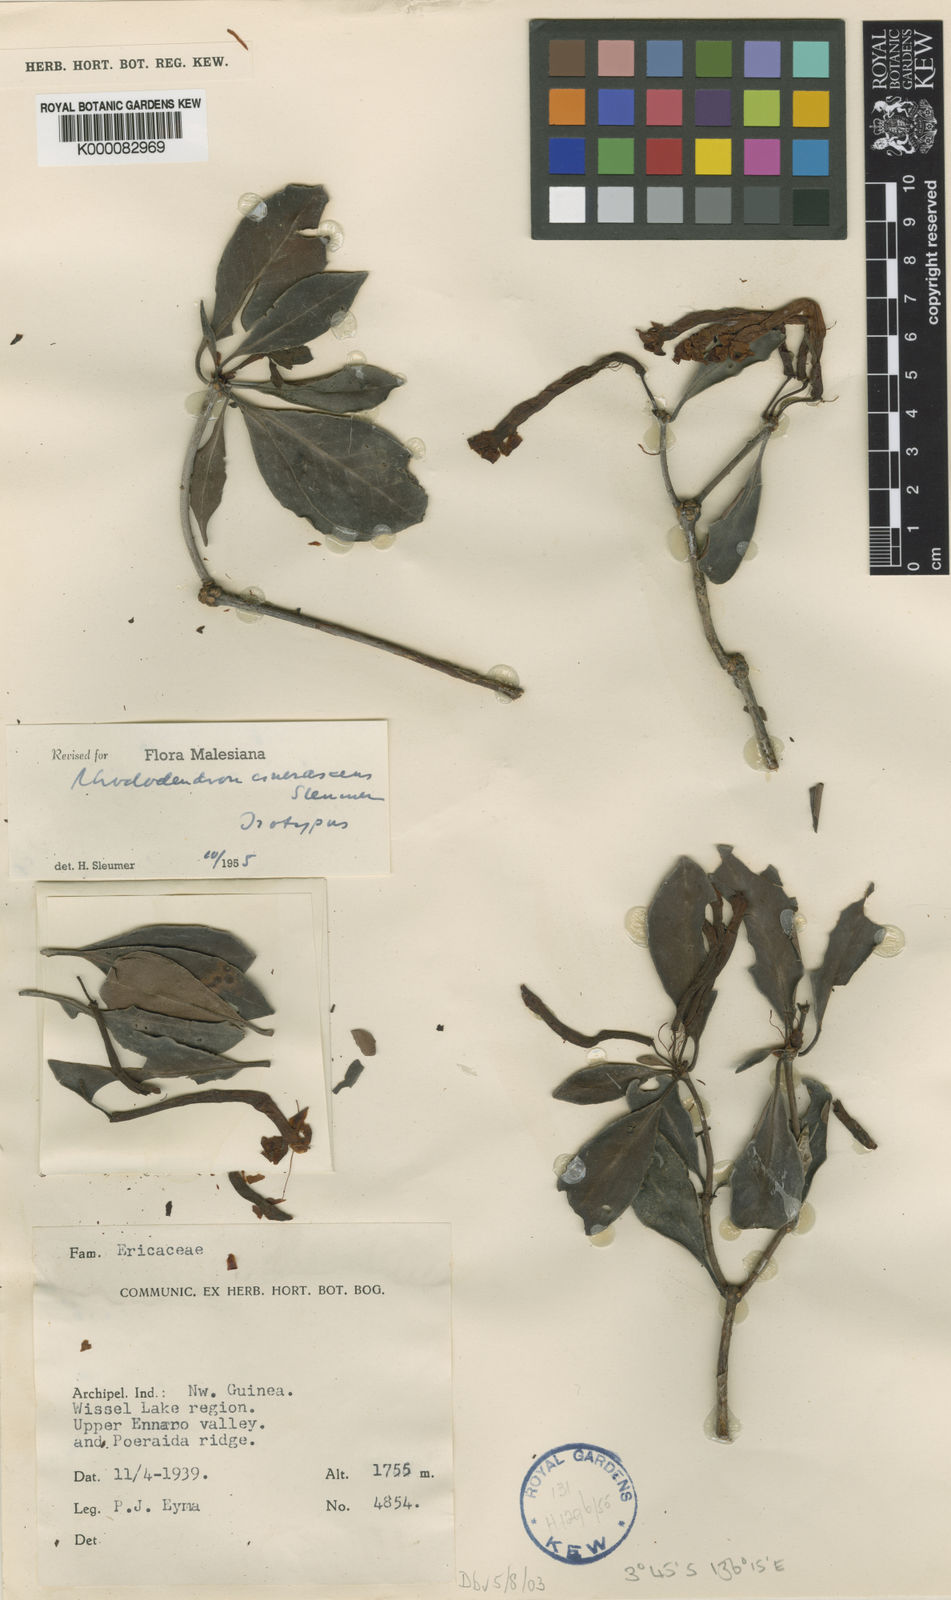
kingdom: Plantae
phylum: Tracheophyta
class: Magnoliopsida
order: Ericales
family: Ericaceae
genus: Rhododendron
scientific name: Rhododendron cinerascens
